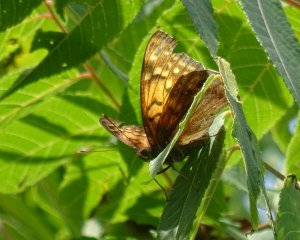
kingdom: Animalia
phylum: Arthropoda
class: Insecta
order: Lepidoptera
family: Nymphalidae
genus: Asterocampa
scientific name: Asterocampa clyton
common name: Tawny Emperor
